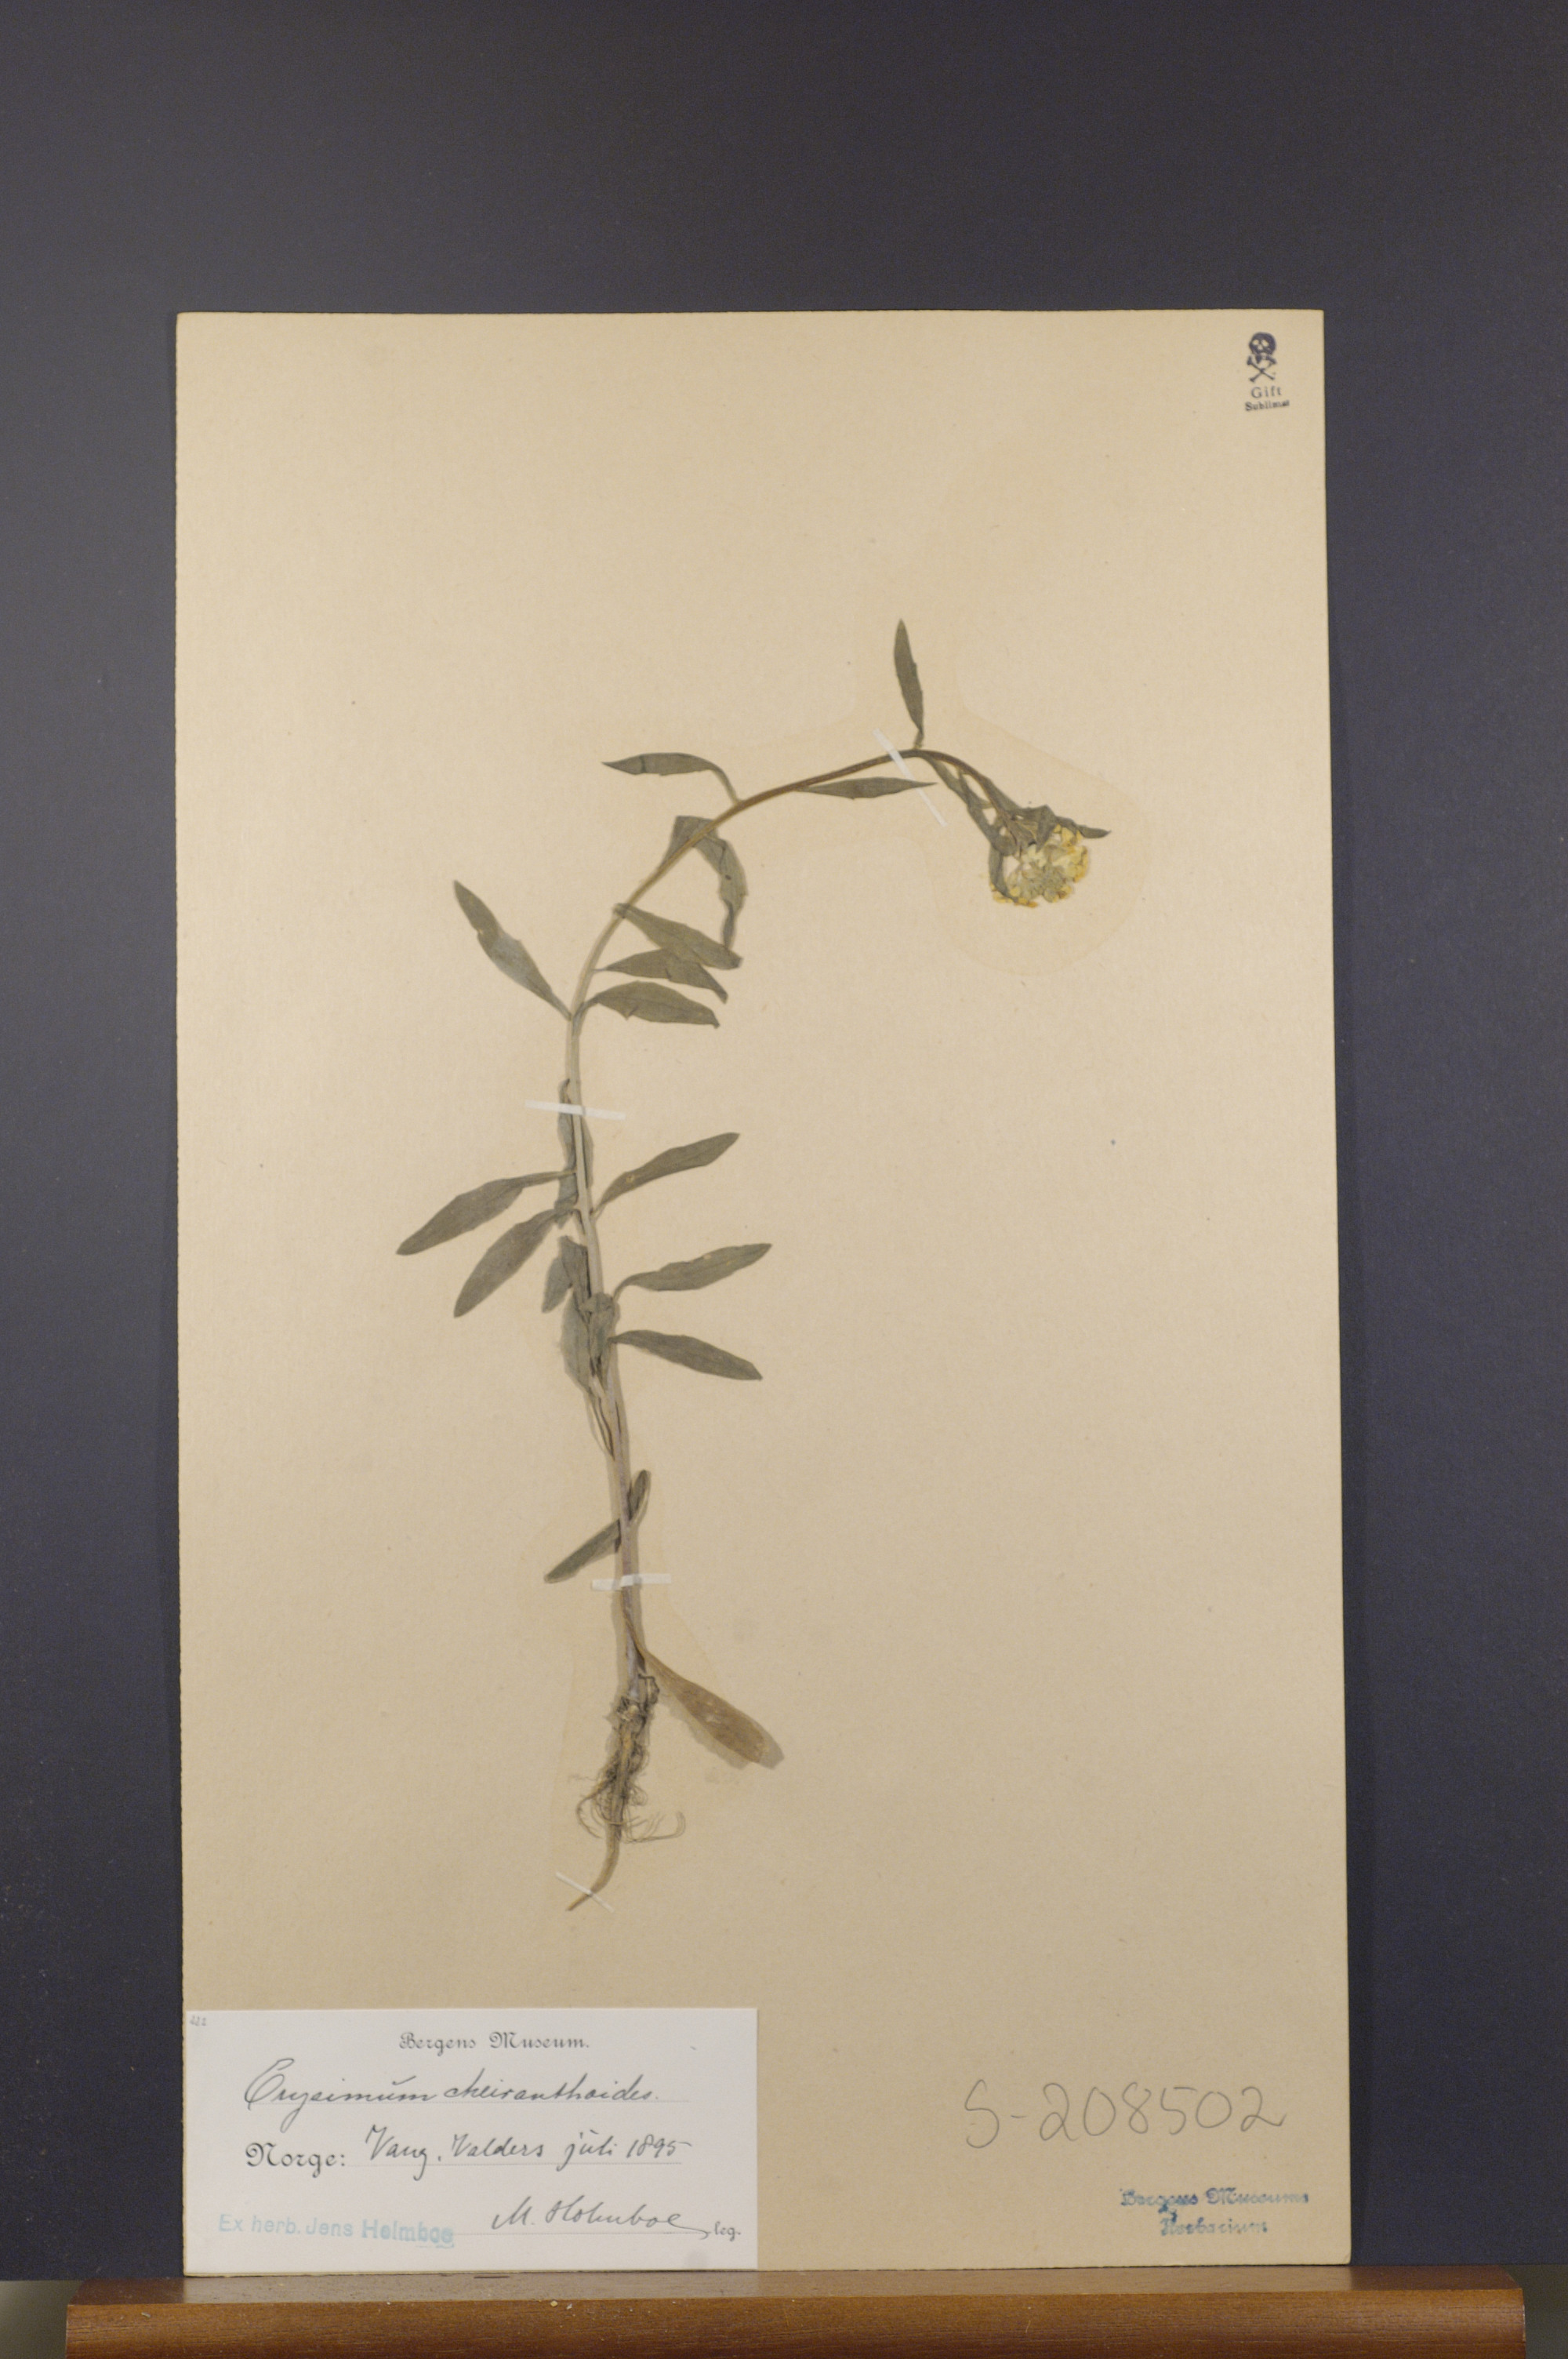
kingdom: Plantae
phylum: Tracheophyta
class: Magnoliopsida
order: Brassicales
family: Brassicaceae
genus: Erysimum
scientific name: Erysimum cheiranthoides
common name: Treacle mustard
